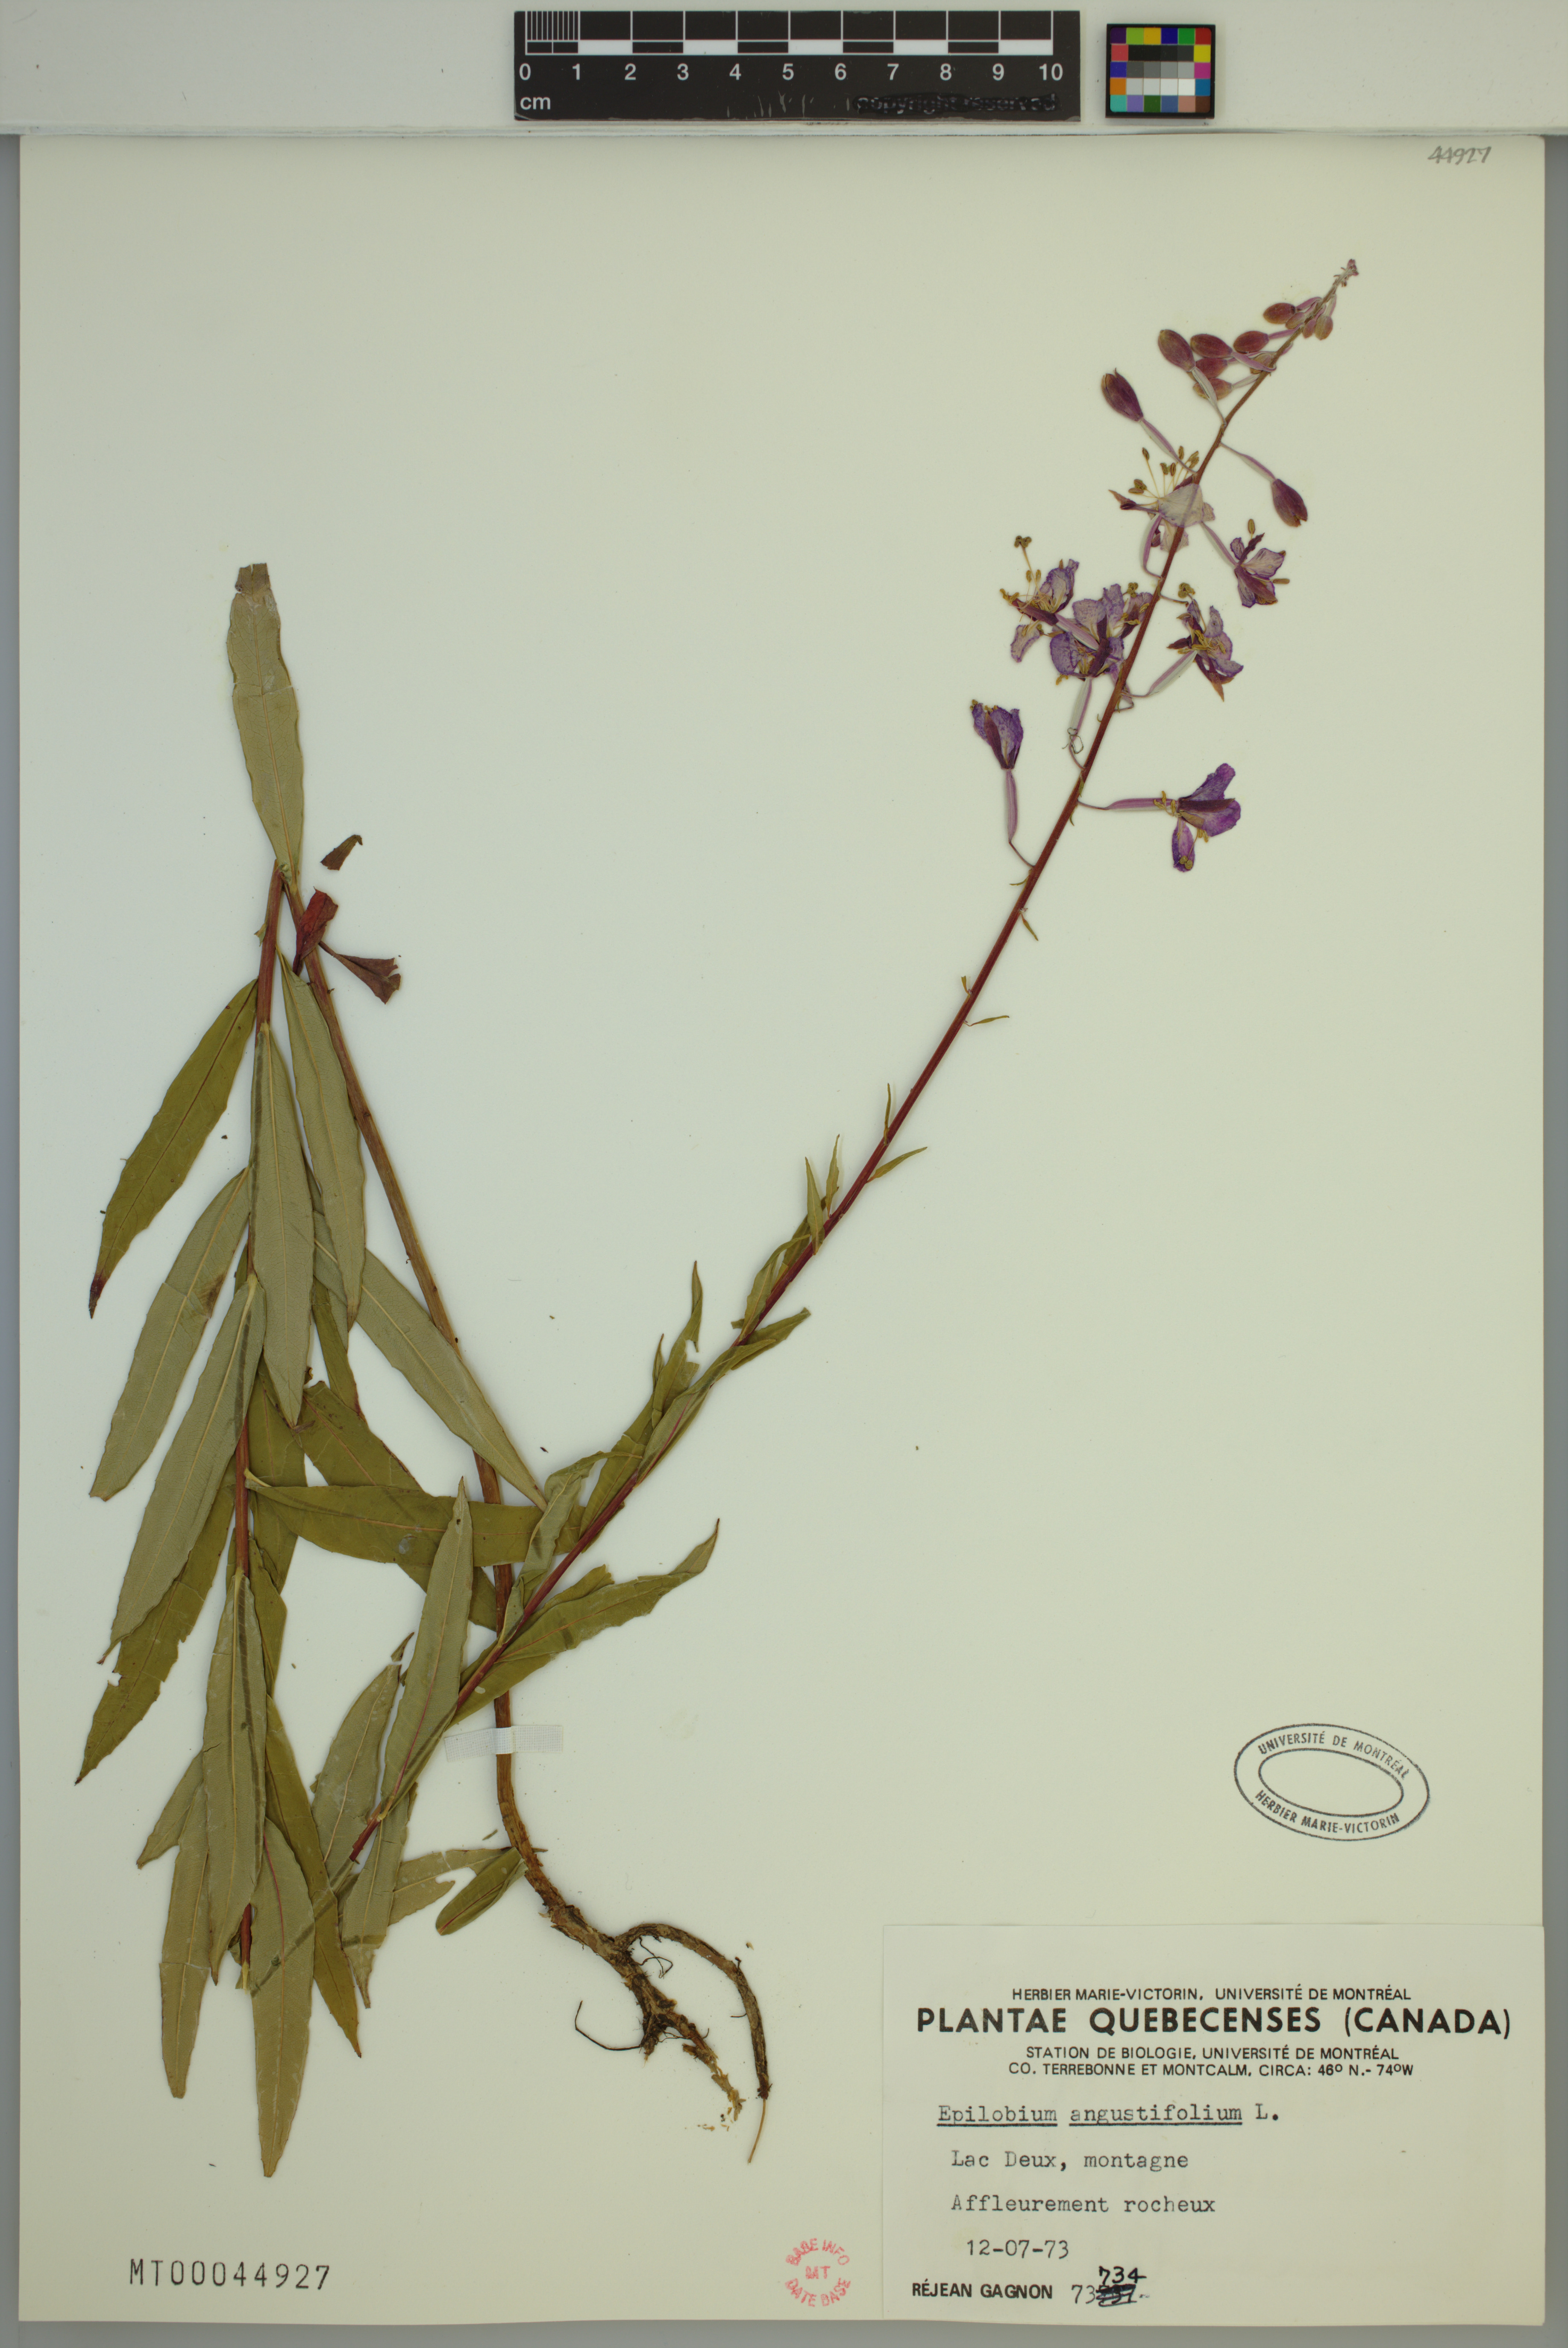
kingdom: Plantae
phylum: Tracheophyta
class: Magnoliopsida
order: Myrtales
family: Onagraceae
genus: Chamaenerion
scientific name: Chamaenerion angustifolium
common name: Fireweed
